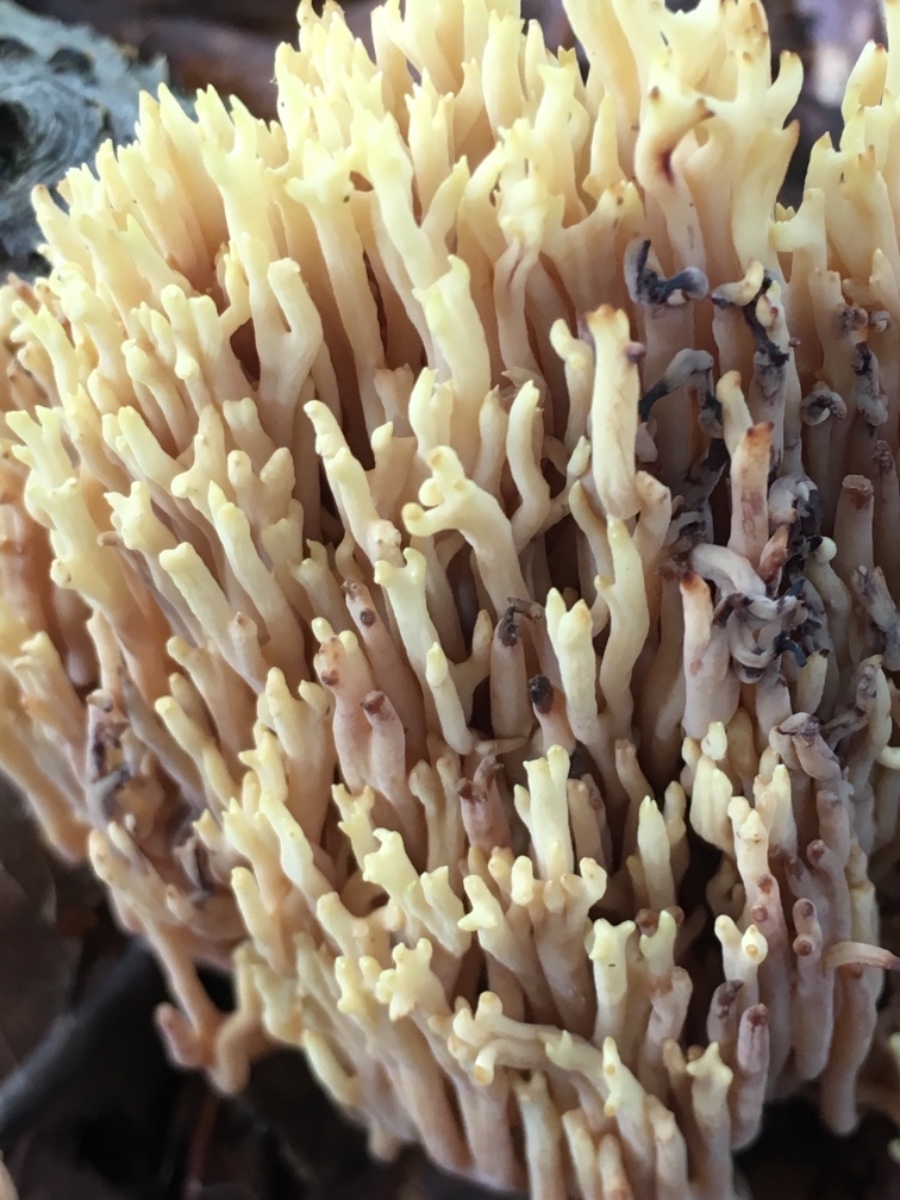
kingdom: Fungi
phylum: Basidiomycota
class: Agaricomycetes
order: Gomphales
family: Gomphaceae
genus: Ramaria
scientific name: Ramaria stricta
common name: rank koralsvamp
